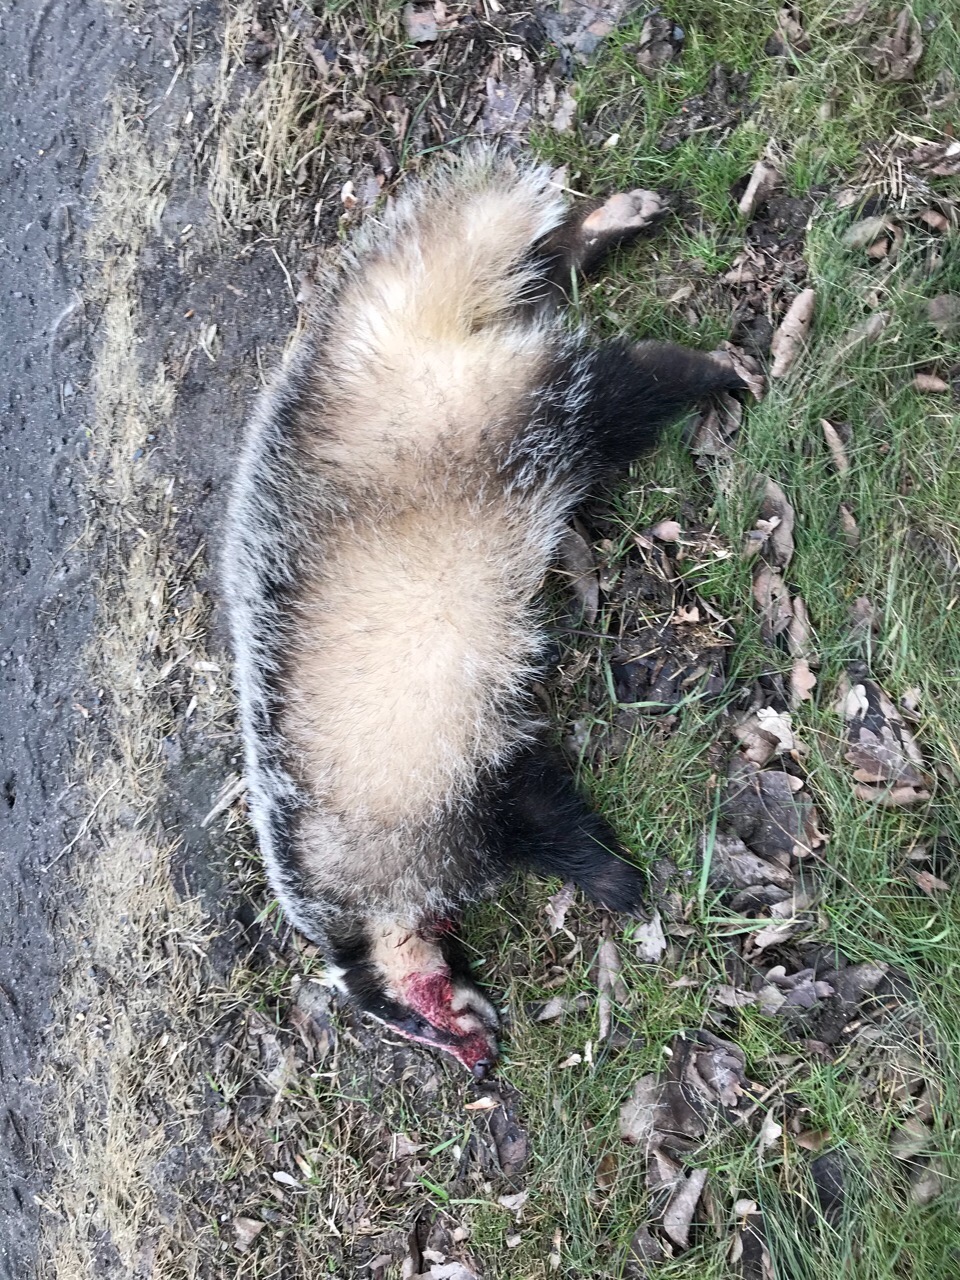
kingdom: Animalia
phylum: Chordata
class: Mammalia
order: Carnivora
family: Mustelidae
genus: Meles
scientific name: Meles meles
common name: Eurasian badger
